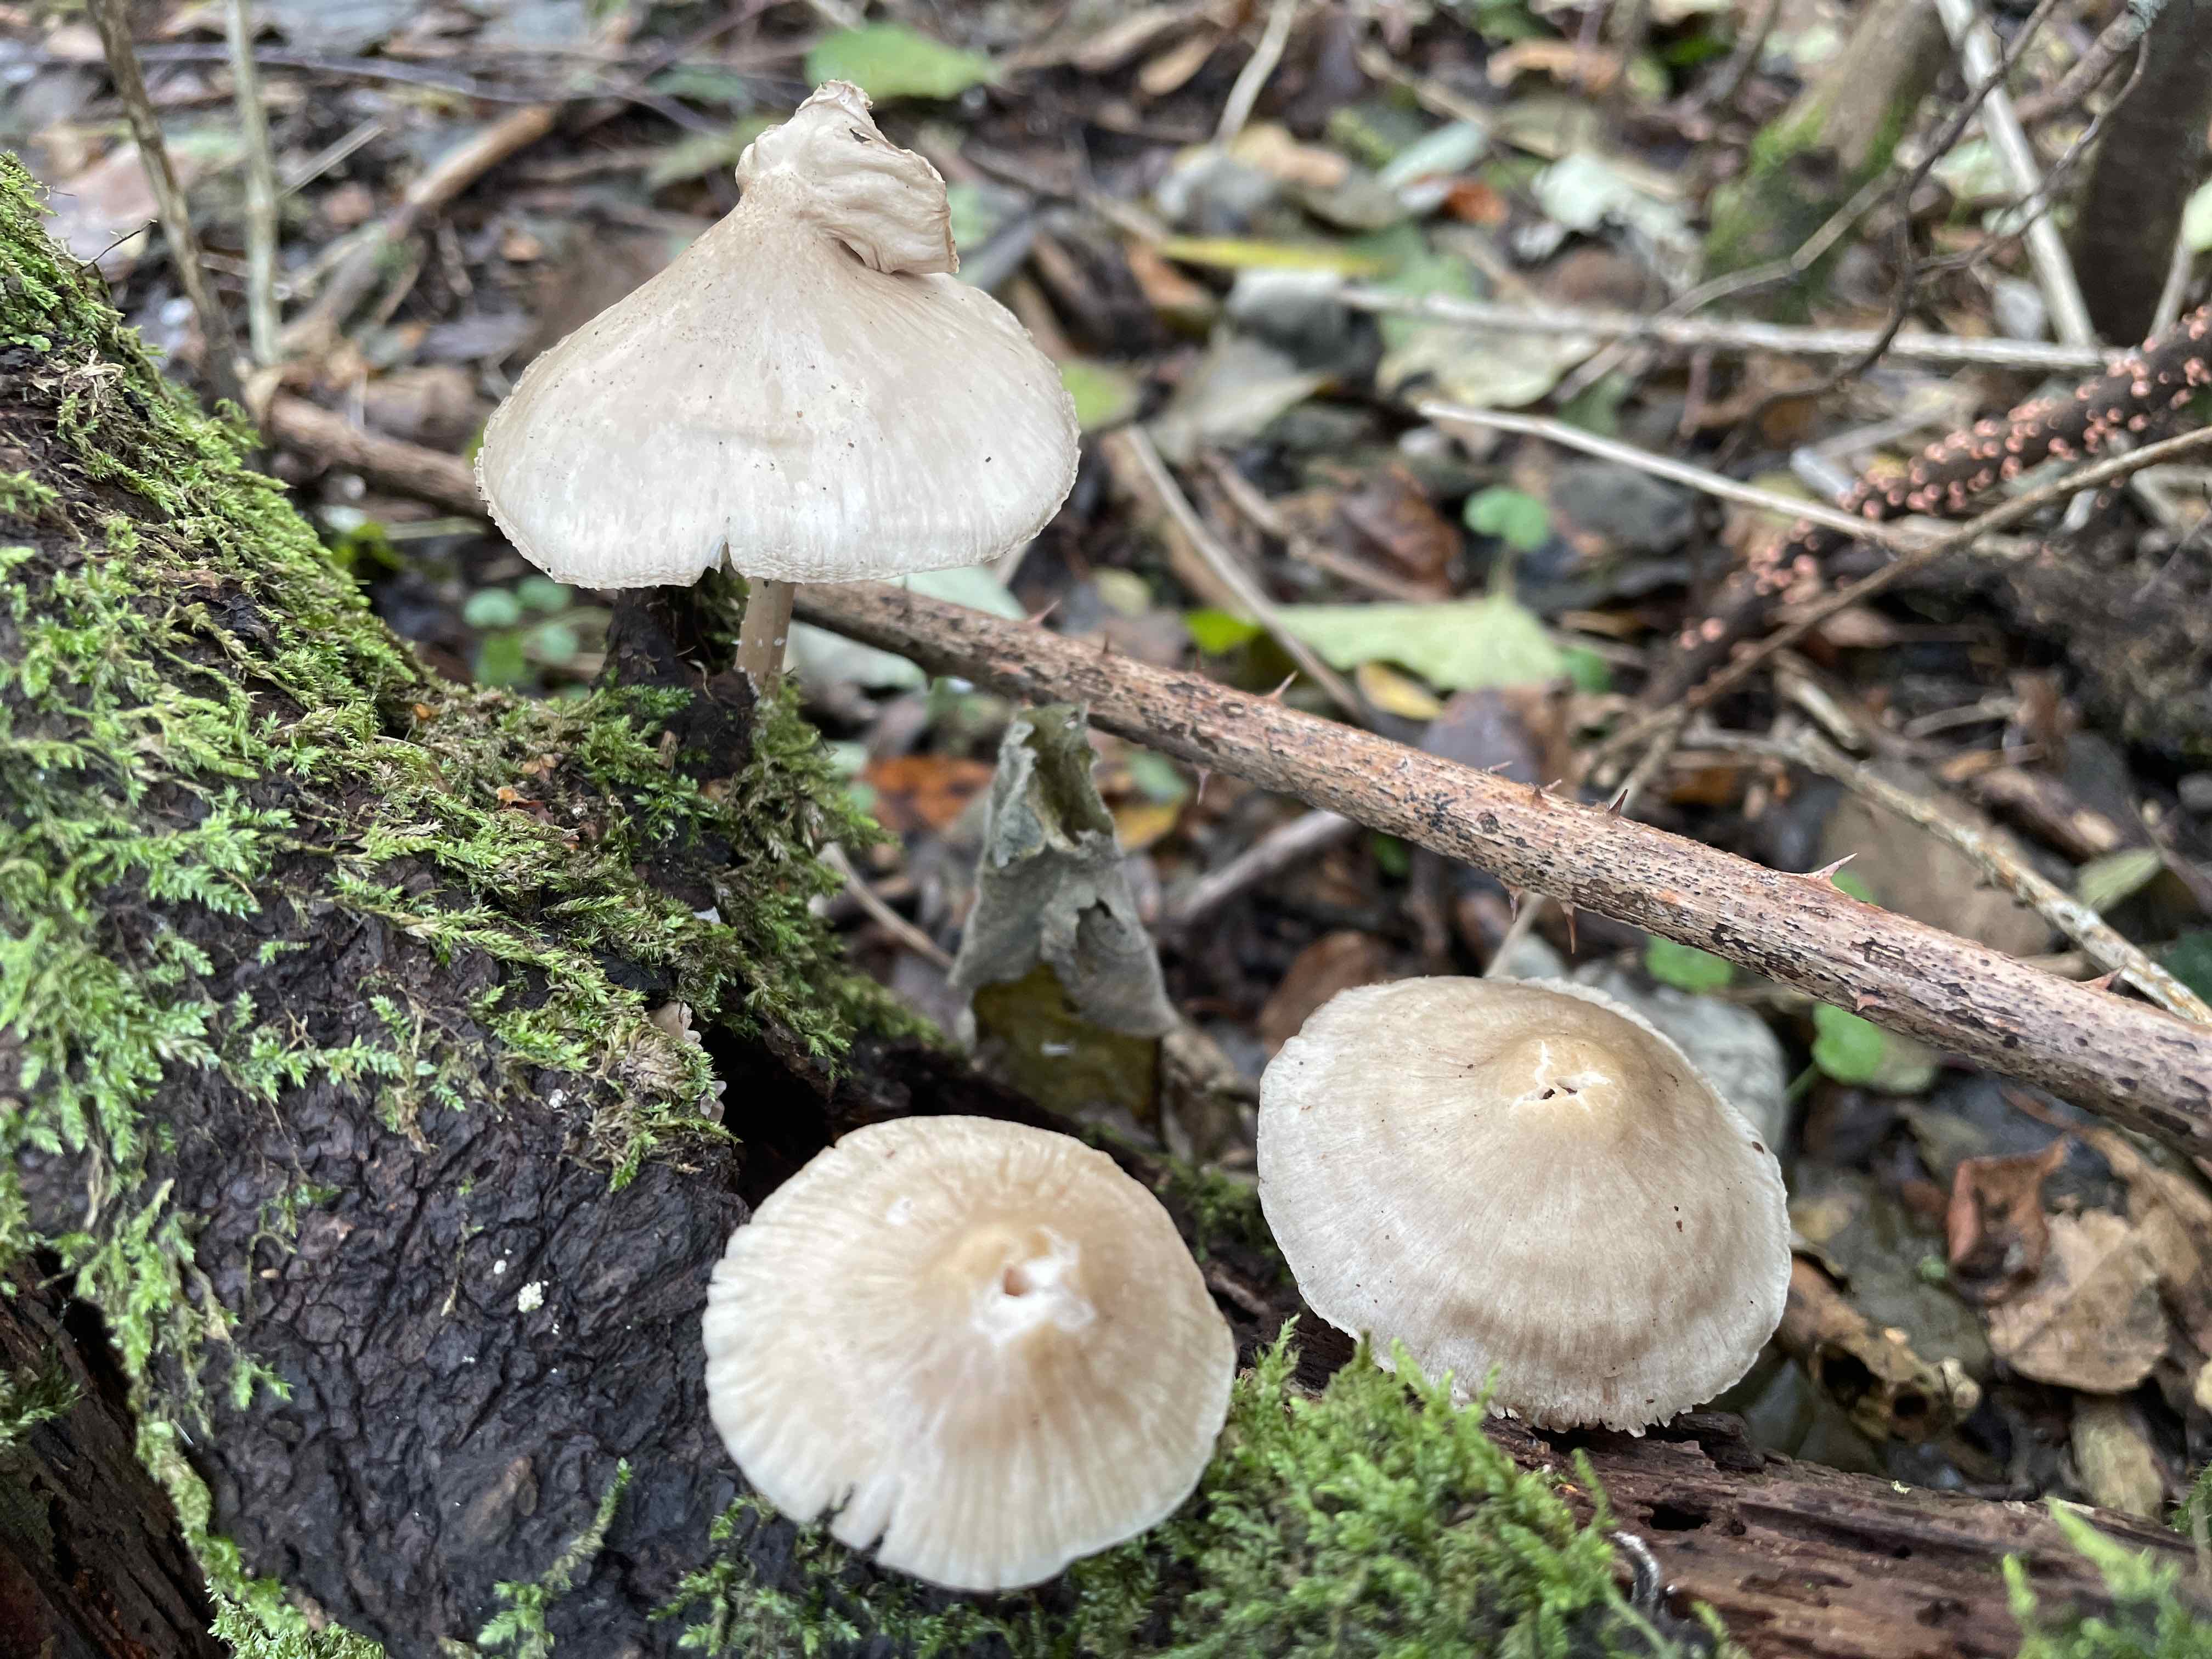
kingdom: Fungi
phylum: Basidiomycota
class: Agaricomycetes
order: Agaricales
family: Mycenaceae
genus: Mycena
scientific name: Mycena galericulata
